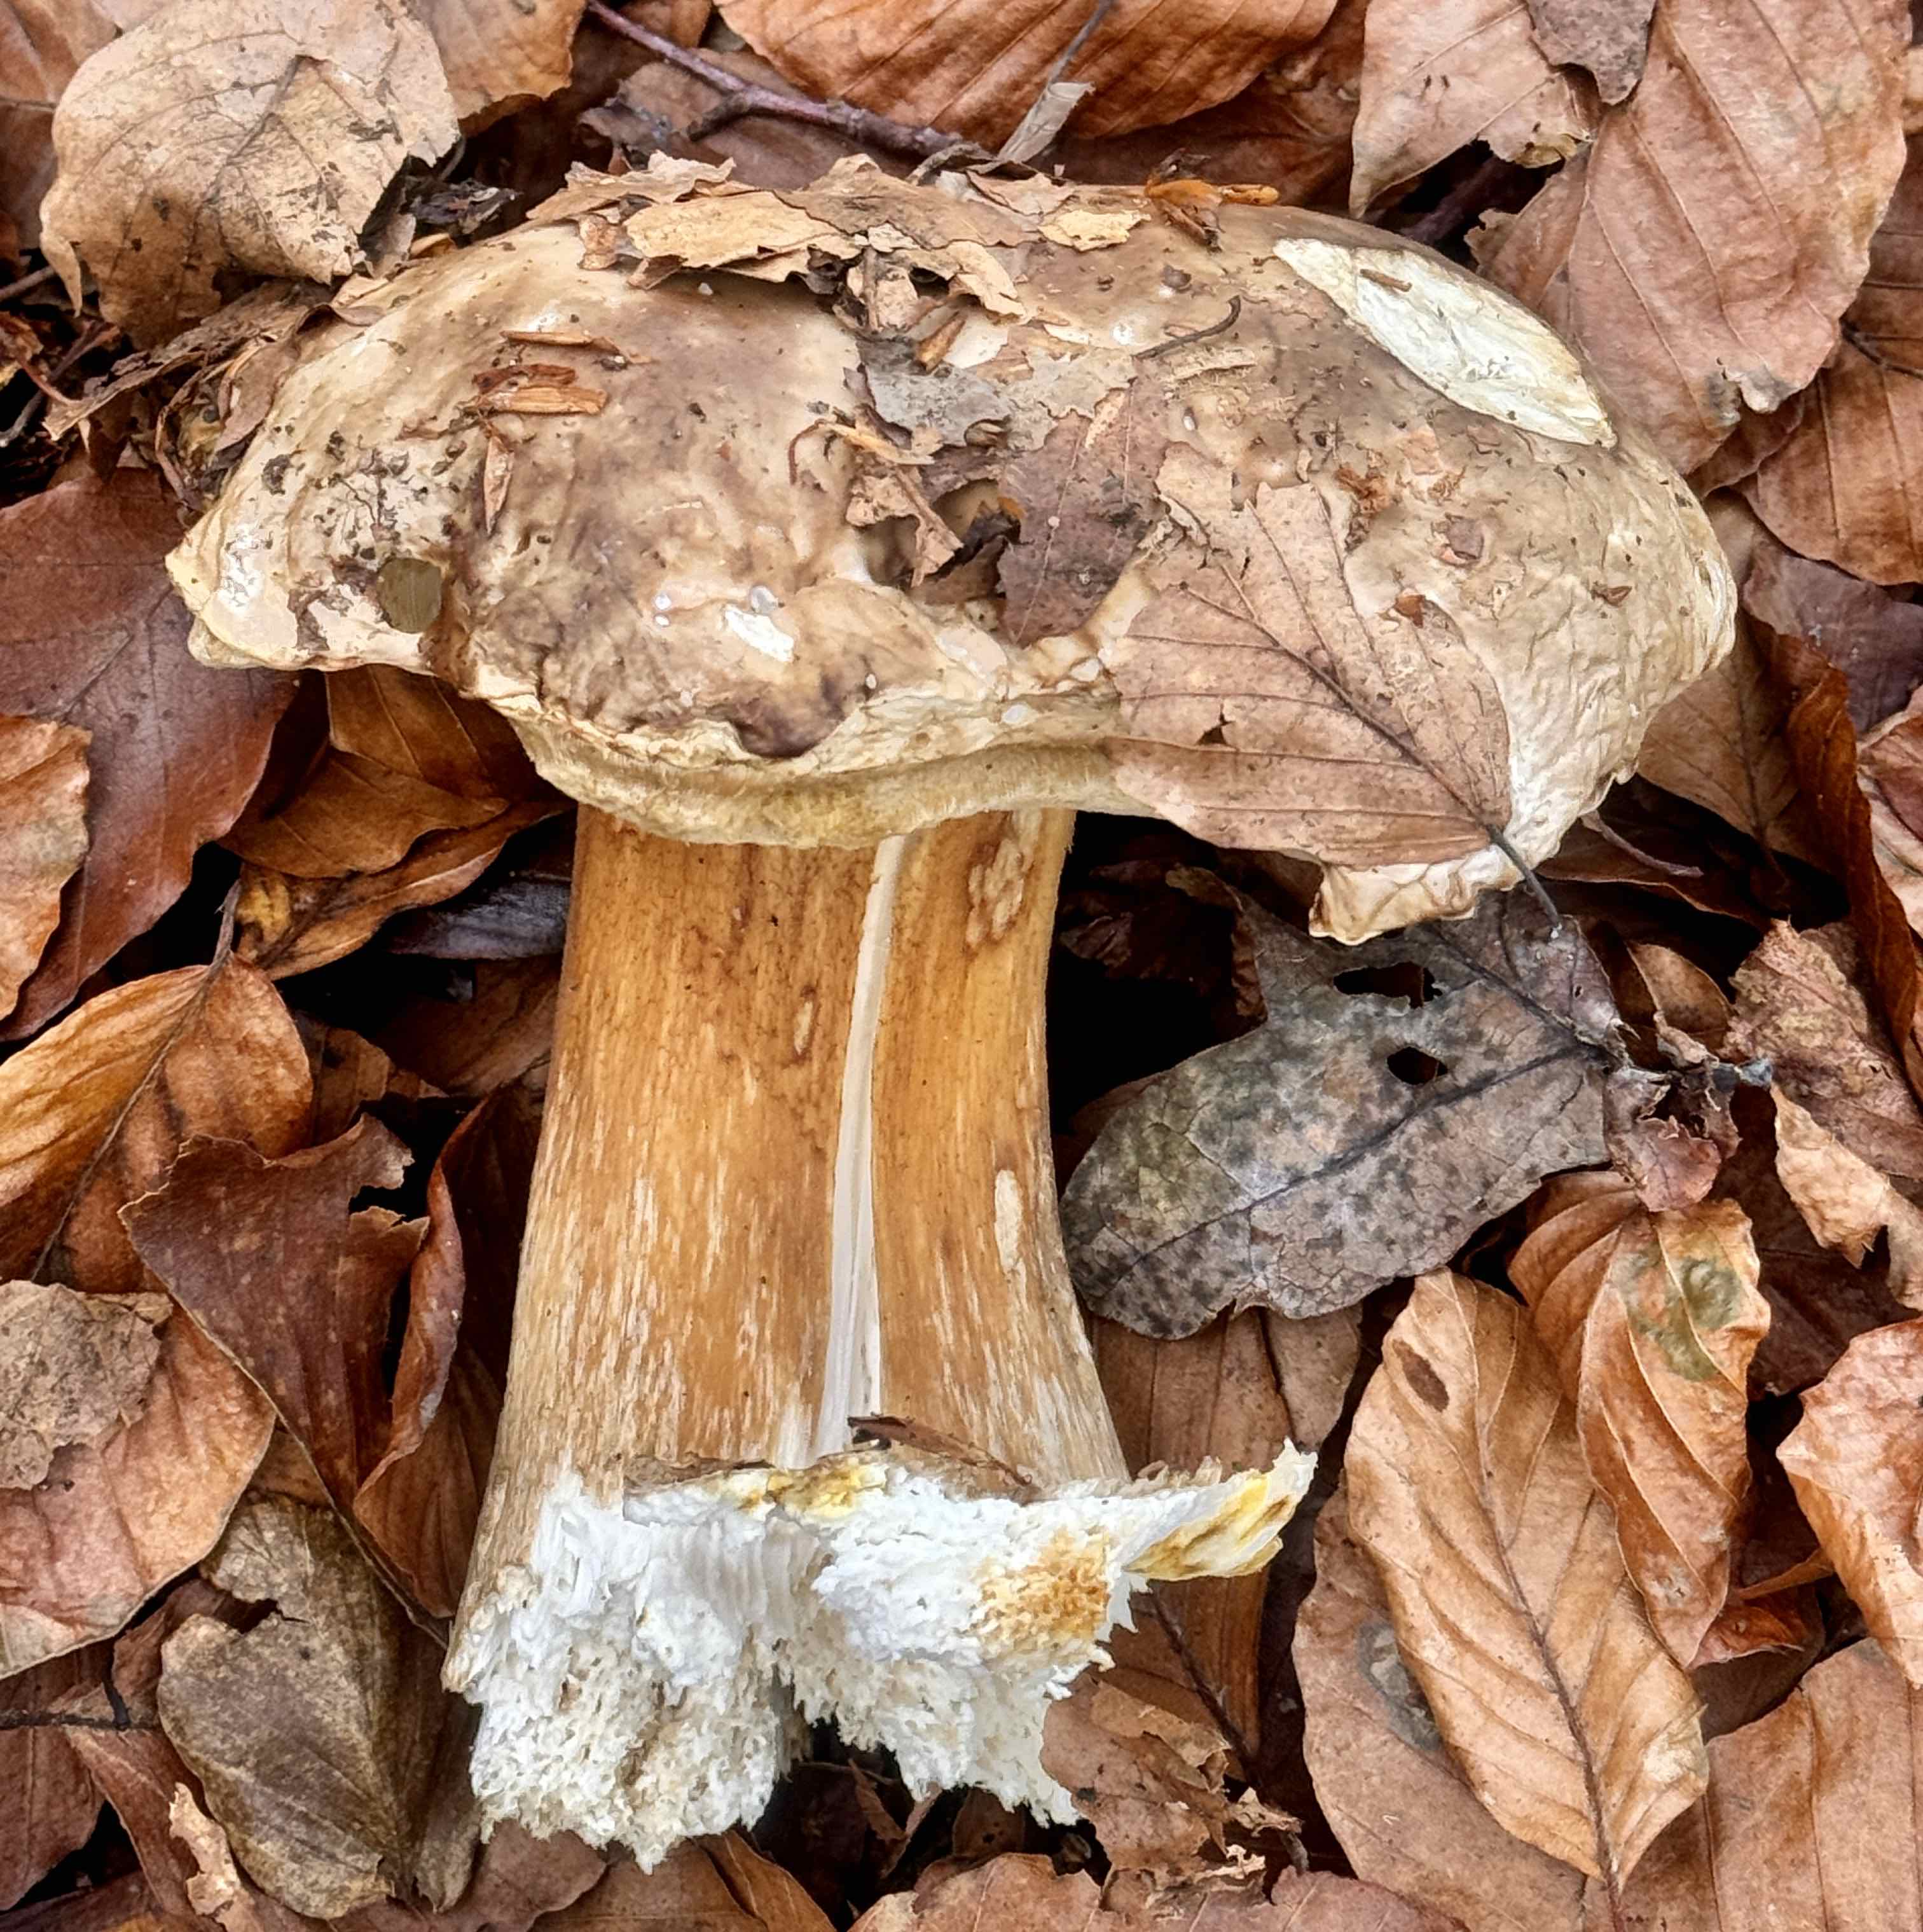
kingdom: Fungi
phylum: Basidiomycota
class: Agaricomycetes
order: Boletales
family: Boletaceae
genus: Boletus
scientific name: Boletus edulis
